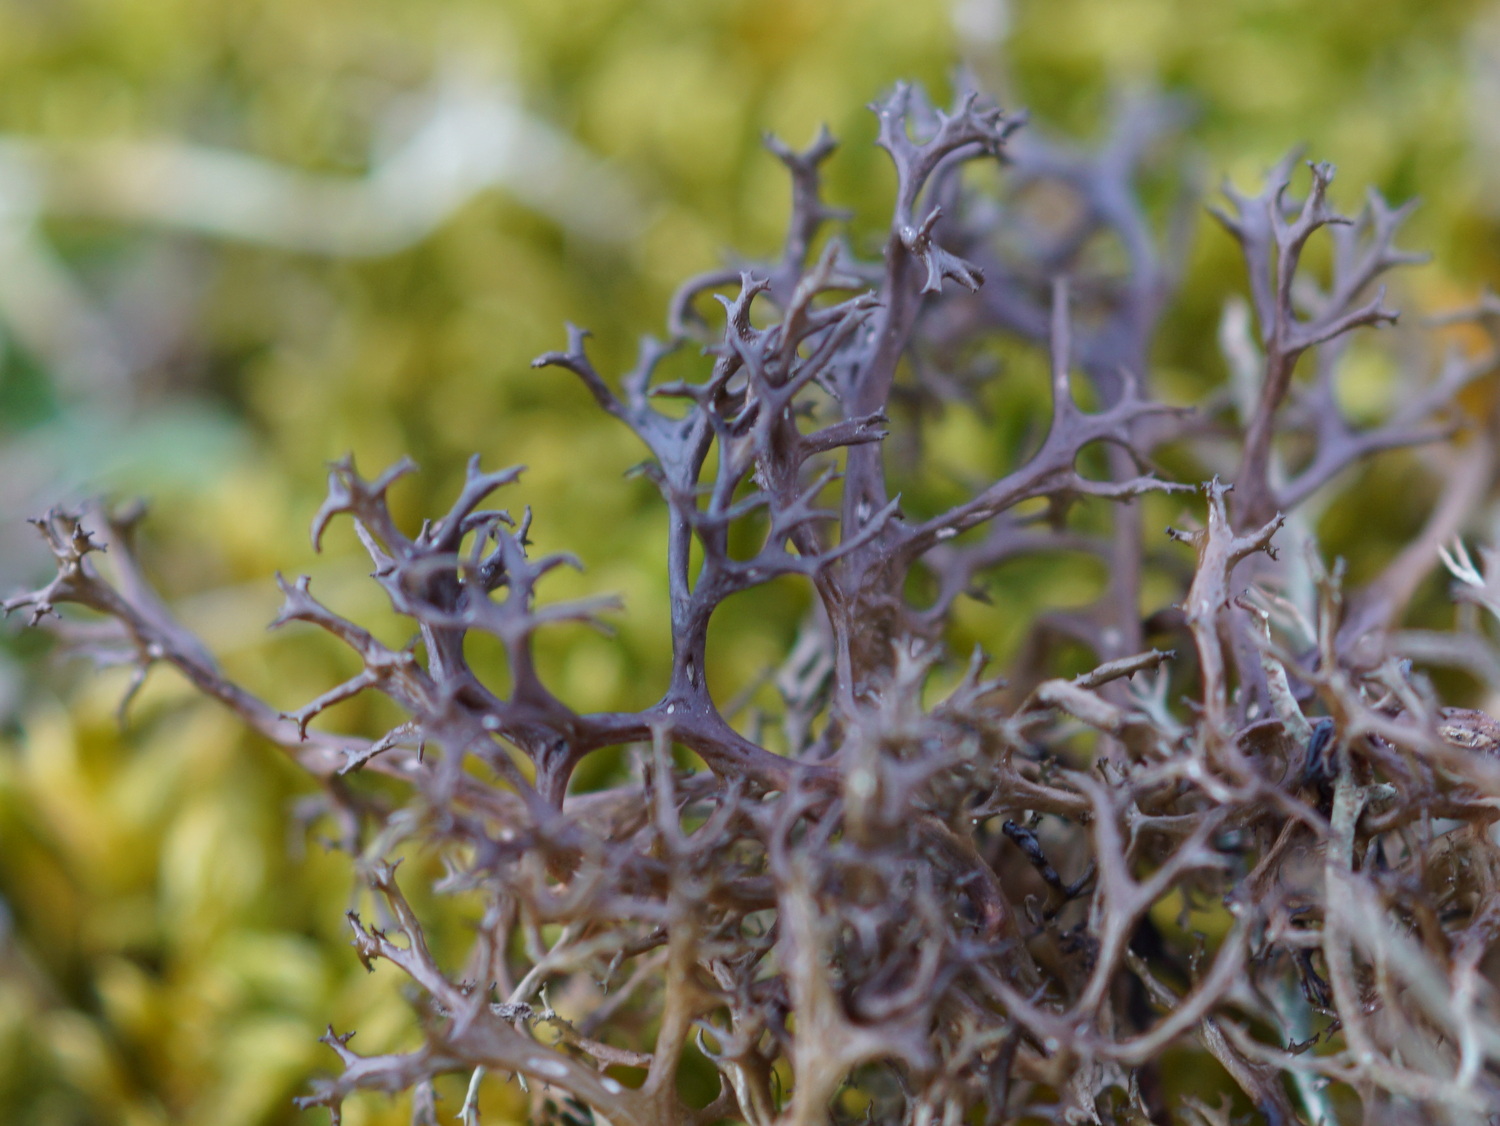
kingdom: Fungi
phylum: Ascomycota
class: Lecanoromycetes
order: Lecanorales
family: Parmeliaceae
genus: Cetraria
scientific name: Cetraria aculeata
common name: grubet tjørnelav
